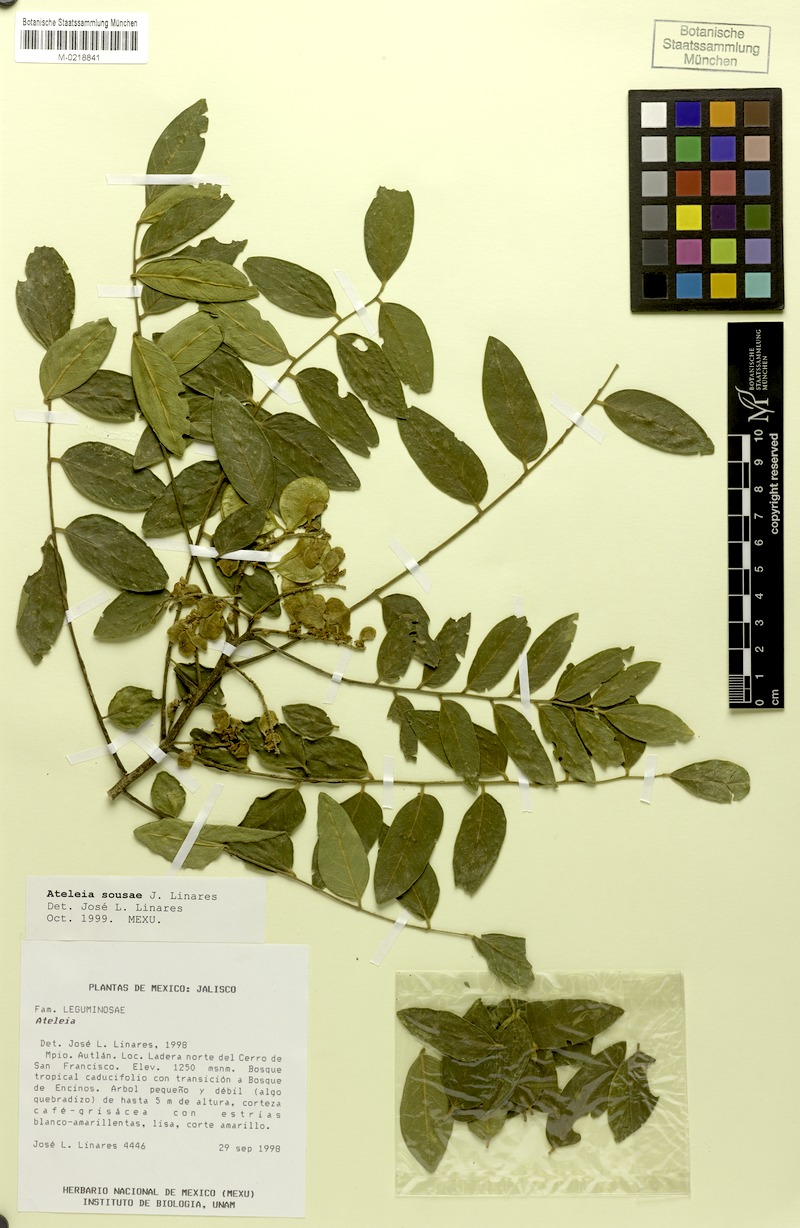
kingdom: Plantae
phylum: Tracheophyta
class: Magnoliopsida
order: Fabales
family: Fabaceae
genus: Ateleia
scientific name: Ateleia sousae
